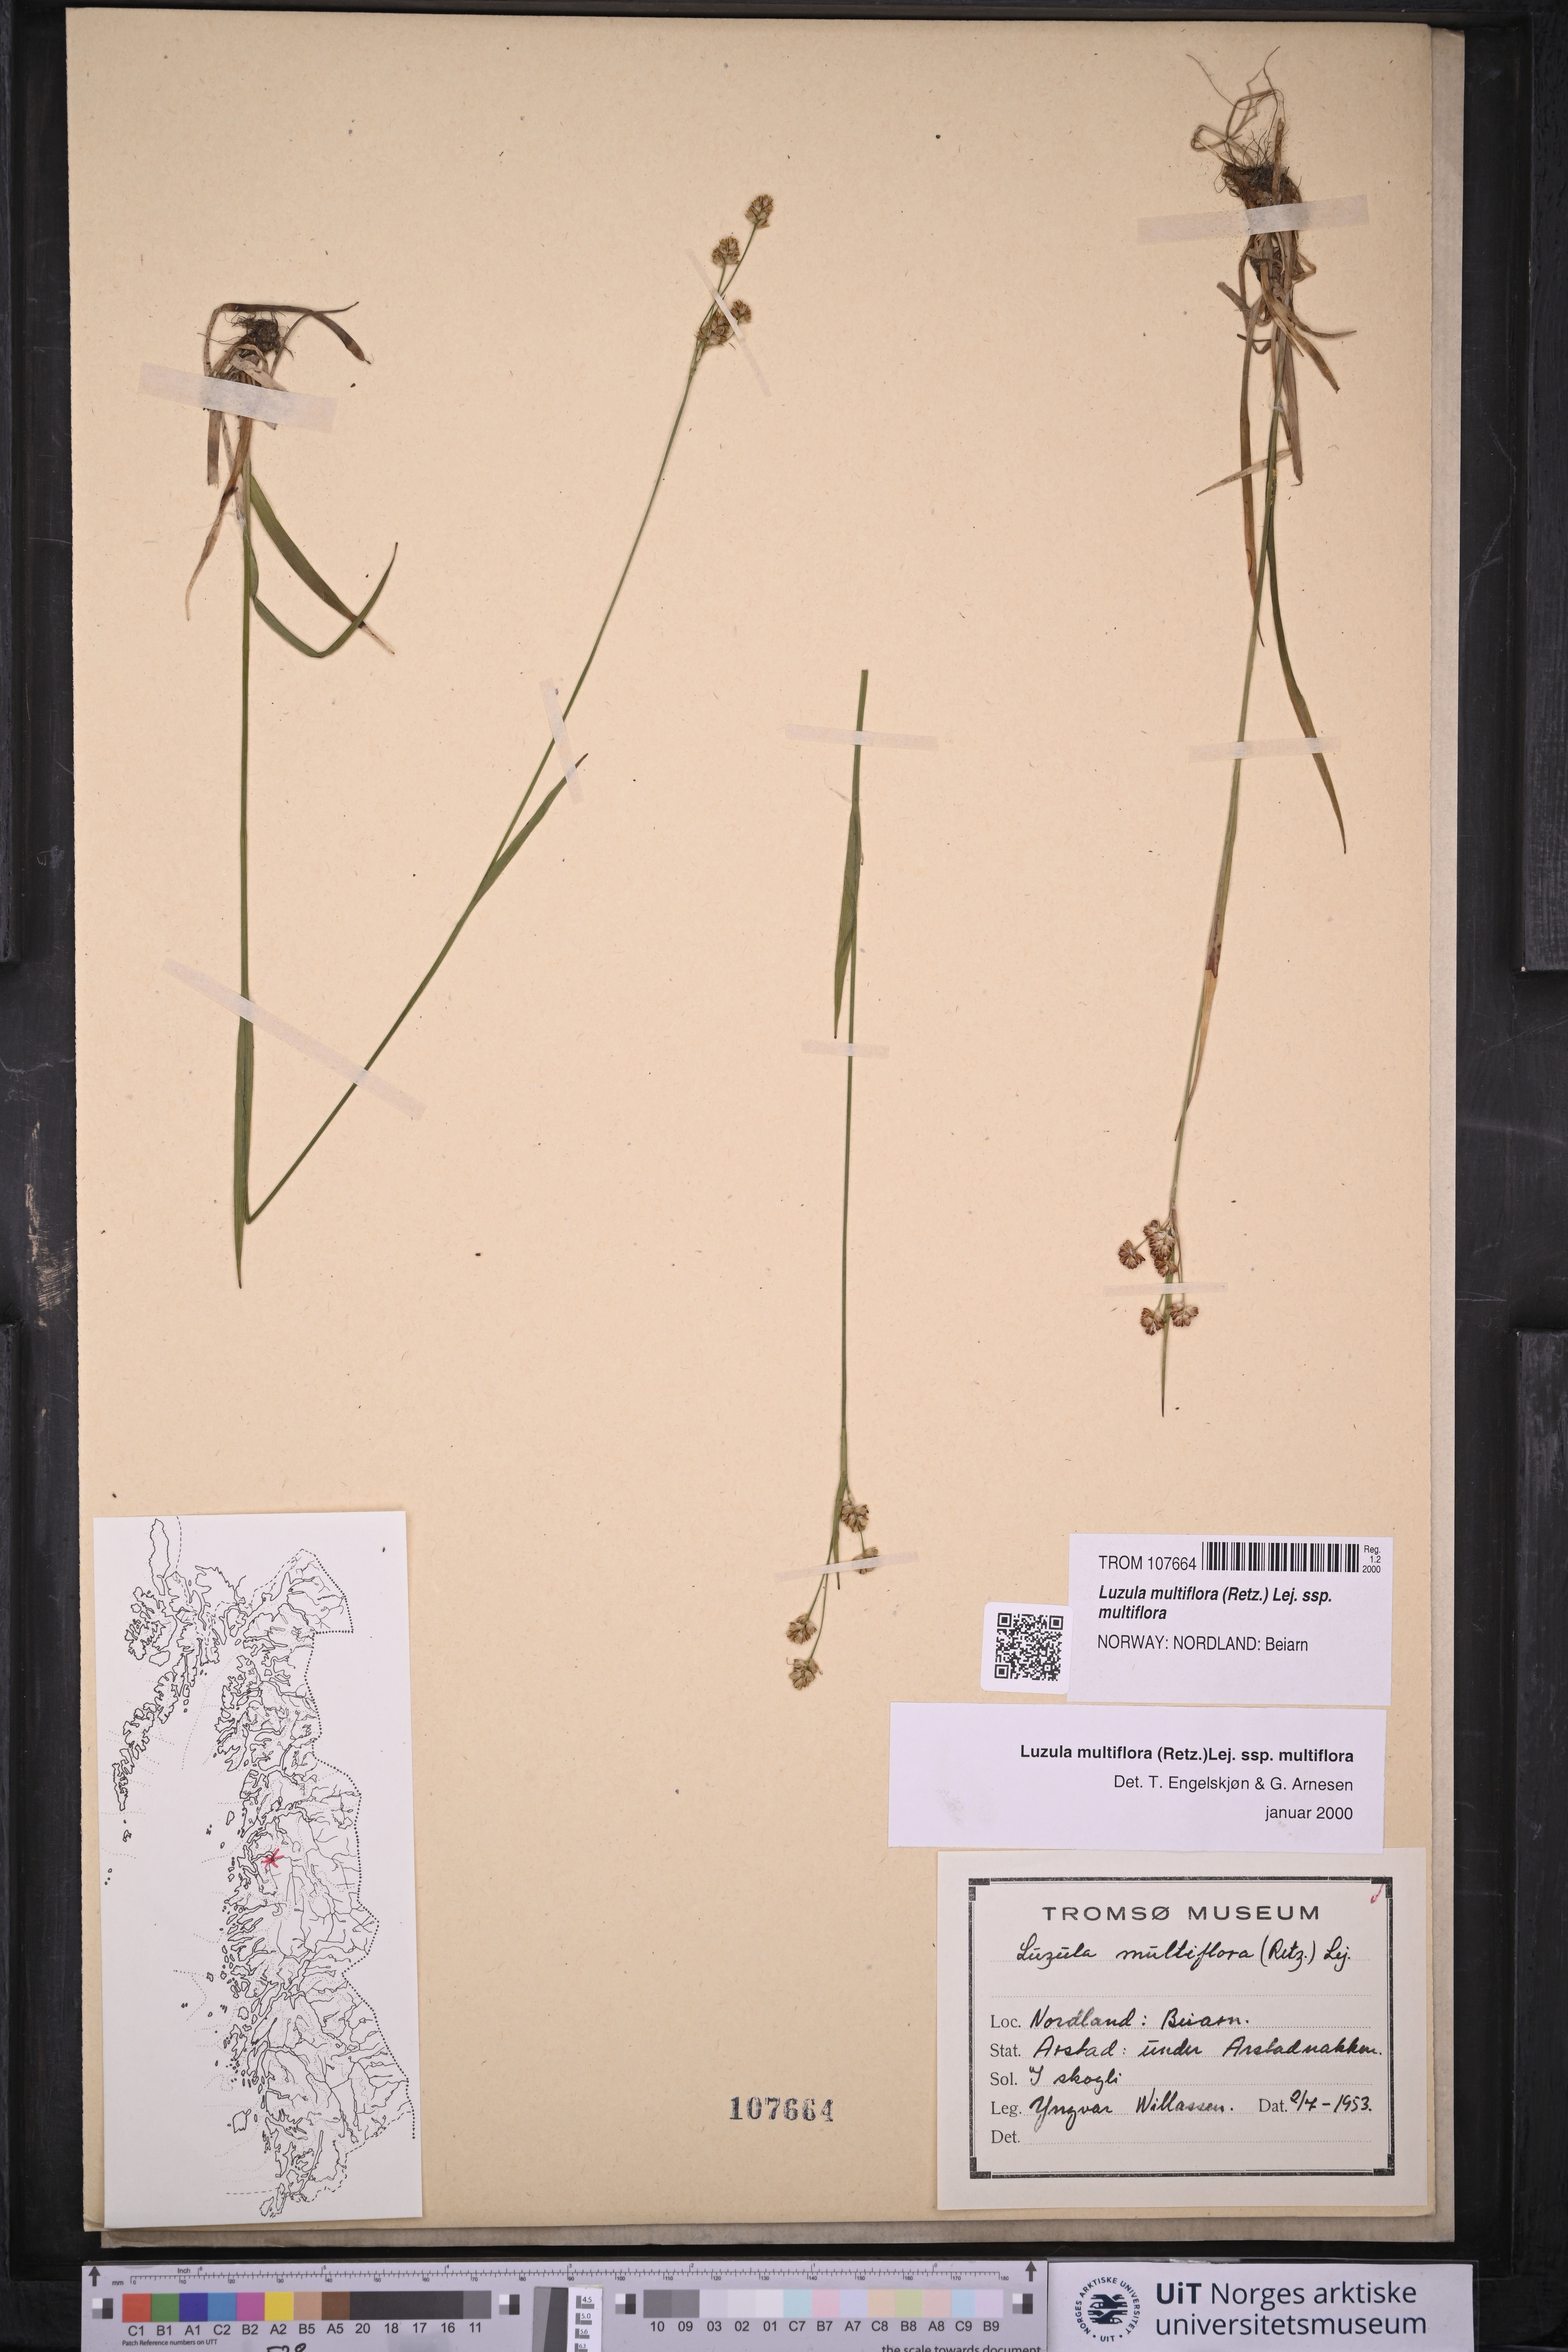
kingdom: Plantae
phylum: Tracheophyta
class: Liliopsida
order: Poales
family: Juncaceae
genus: Luzula
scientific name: Luzula multiflora
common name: Heath wood-rush
